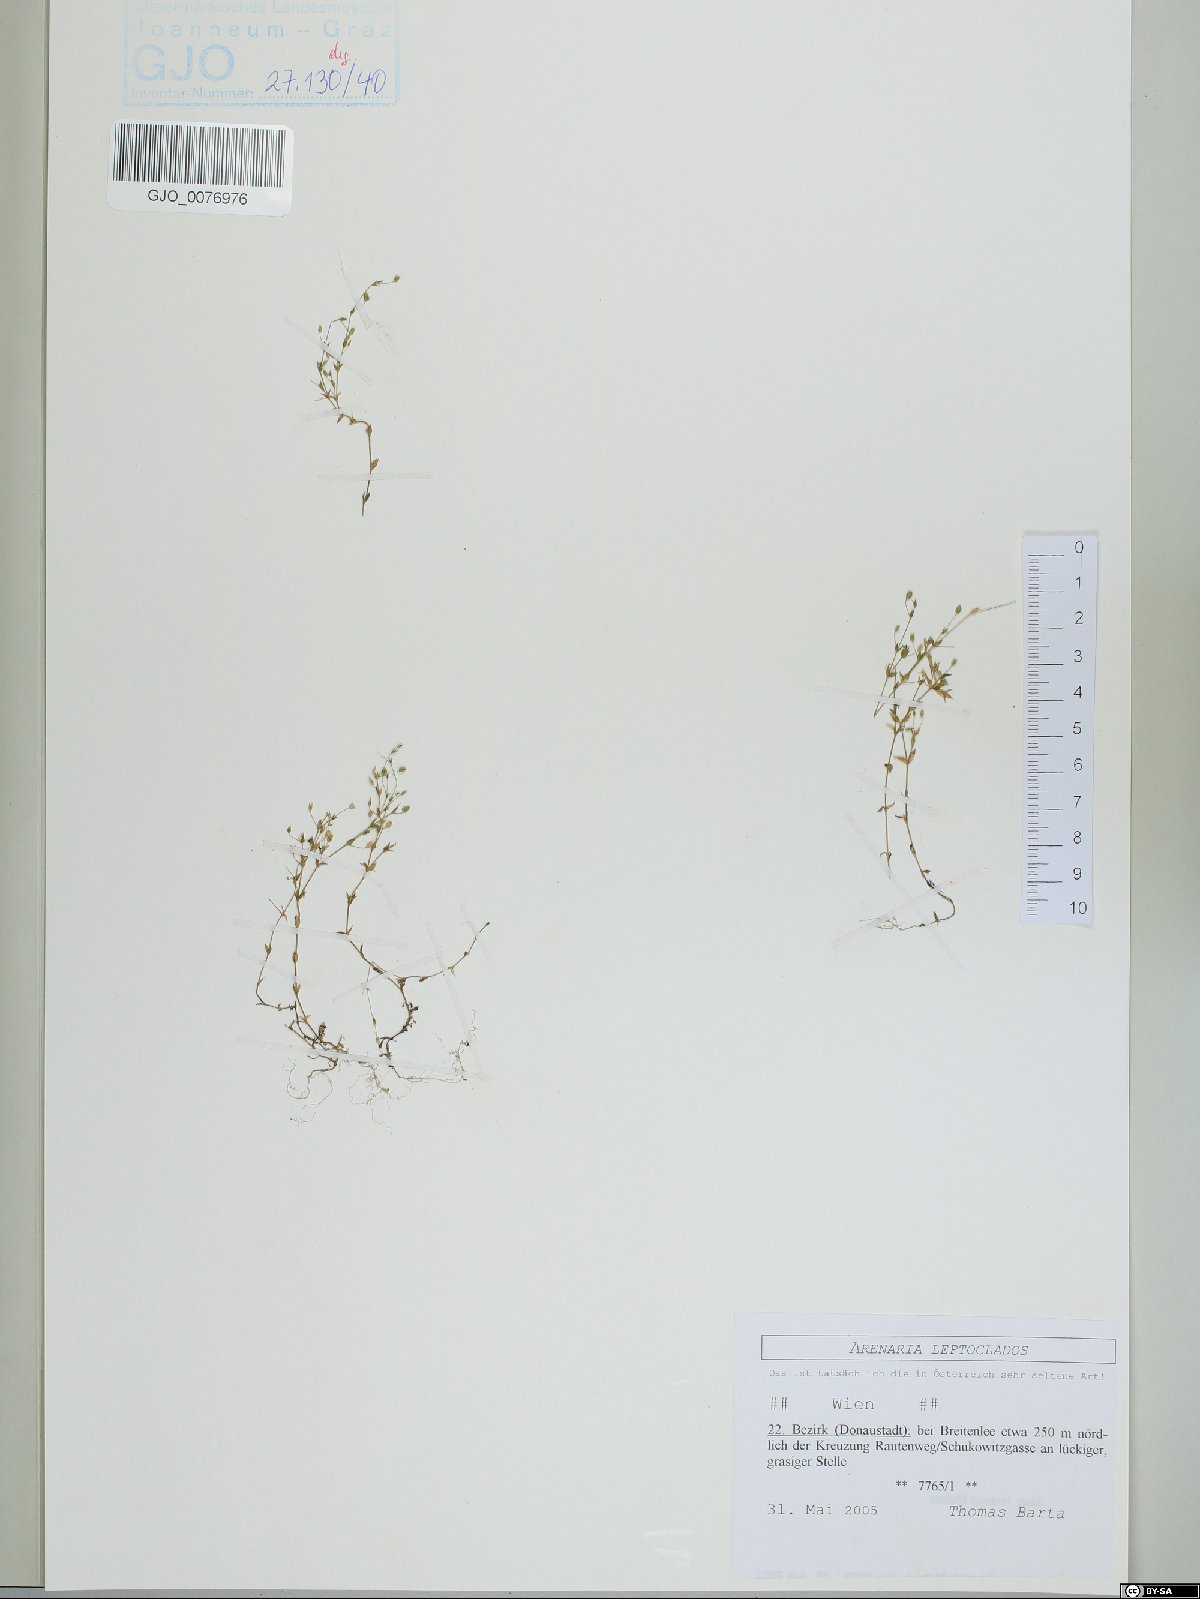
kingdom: Plantae
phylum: Tracheophyta
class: Magnoliopsida
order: Caryophyllales
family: Caryophyllaceae
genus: Arenaria
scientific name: Arenaria leptoclados
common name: Thyme-leaved sandwort
